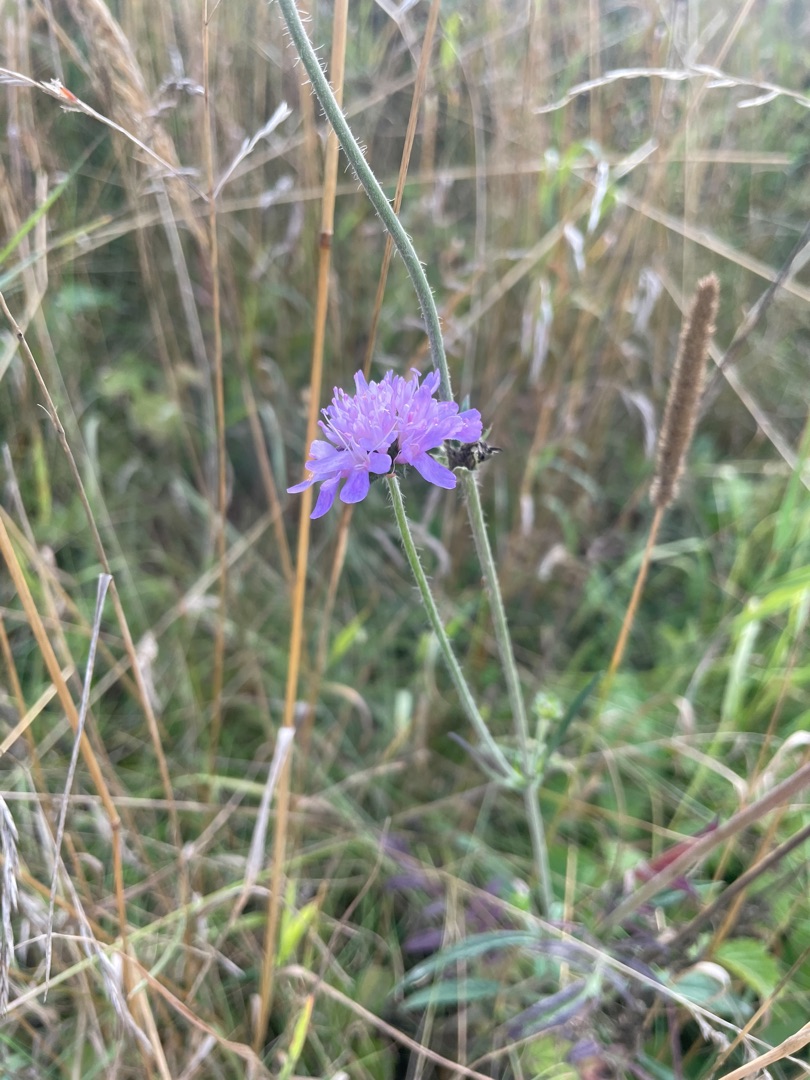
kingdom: Plantae
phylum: Tracheophyta
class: Magnoliopsida
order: Dipsacales
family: Caprifoliaceae
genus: Knautia
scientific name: Knautia arvensis
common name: Blåhat
